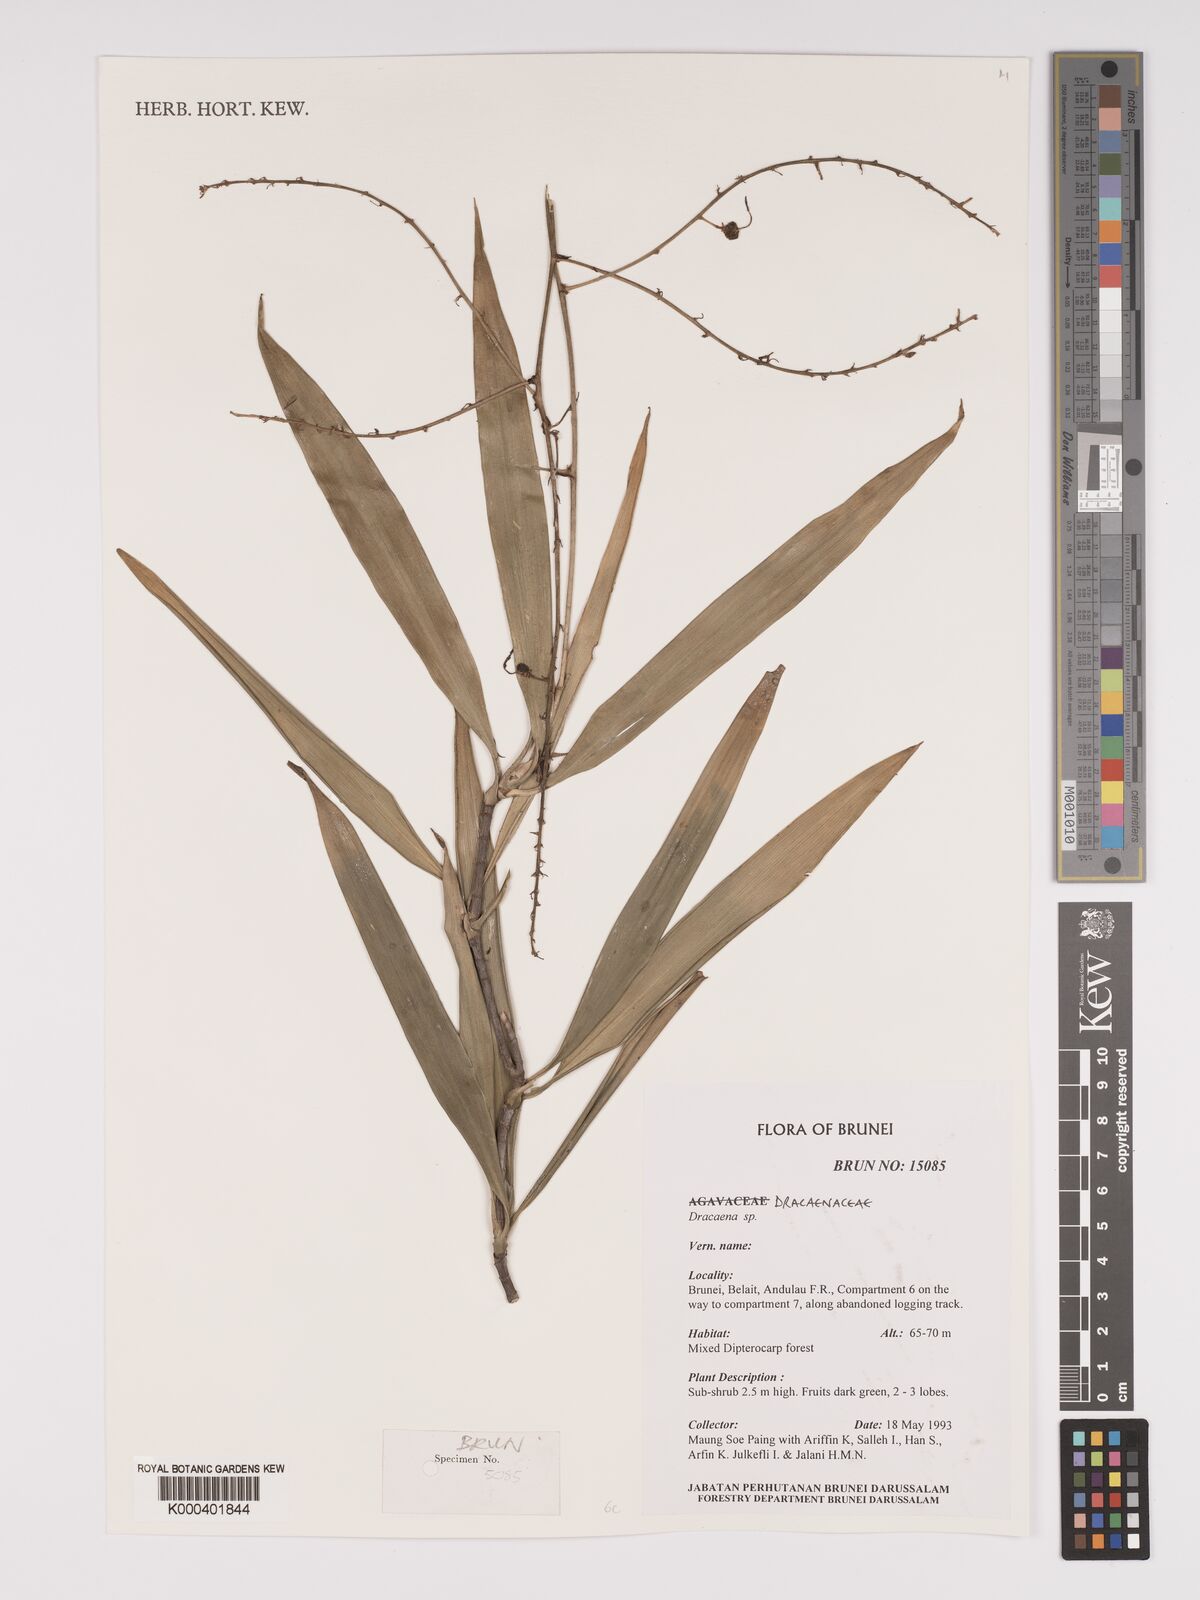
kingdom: Plantae
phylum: Tracheophyta
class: Liliopsida
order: Asparagales
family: Asparagaceae
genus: Dracaena
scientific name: Dracaena
